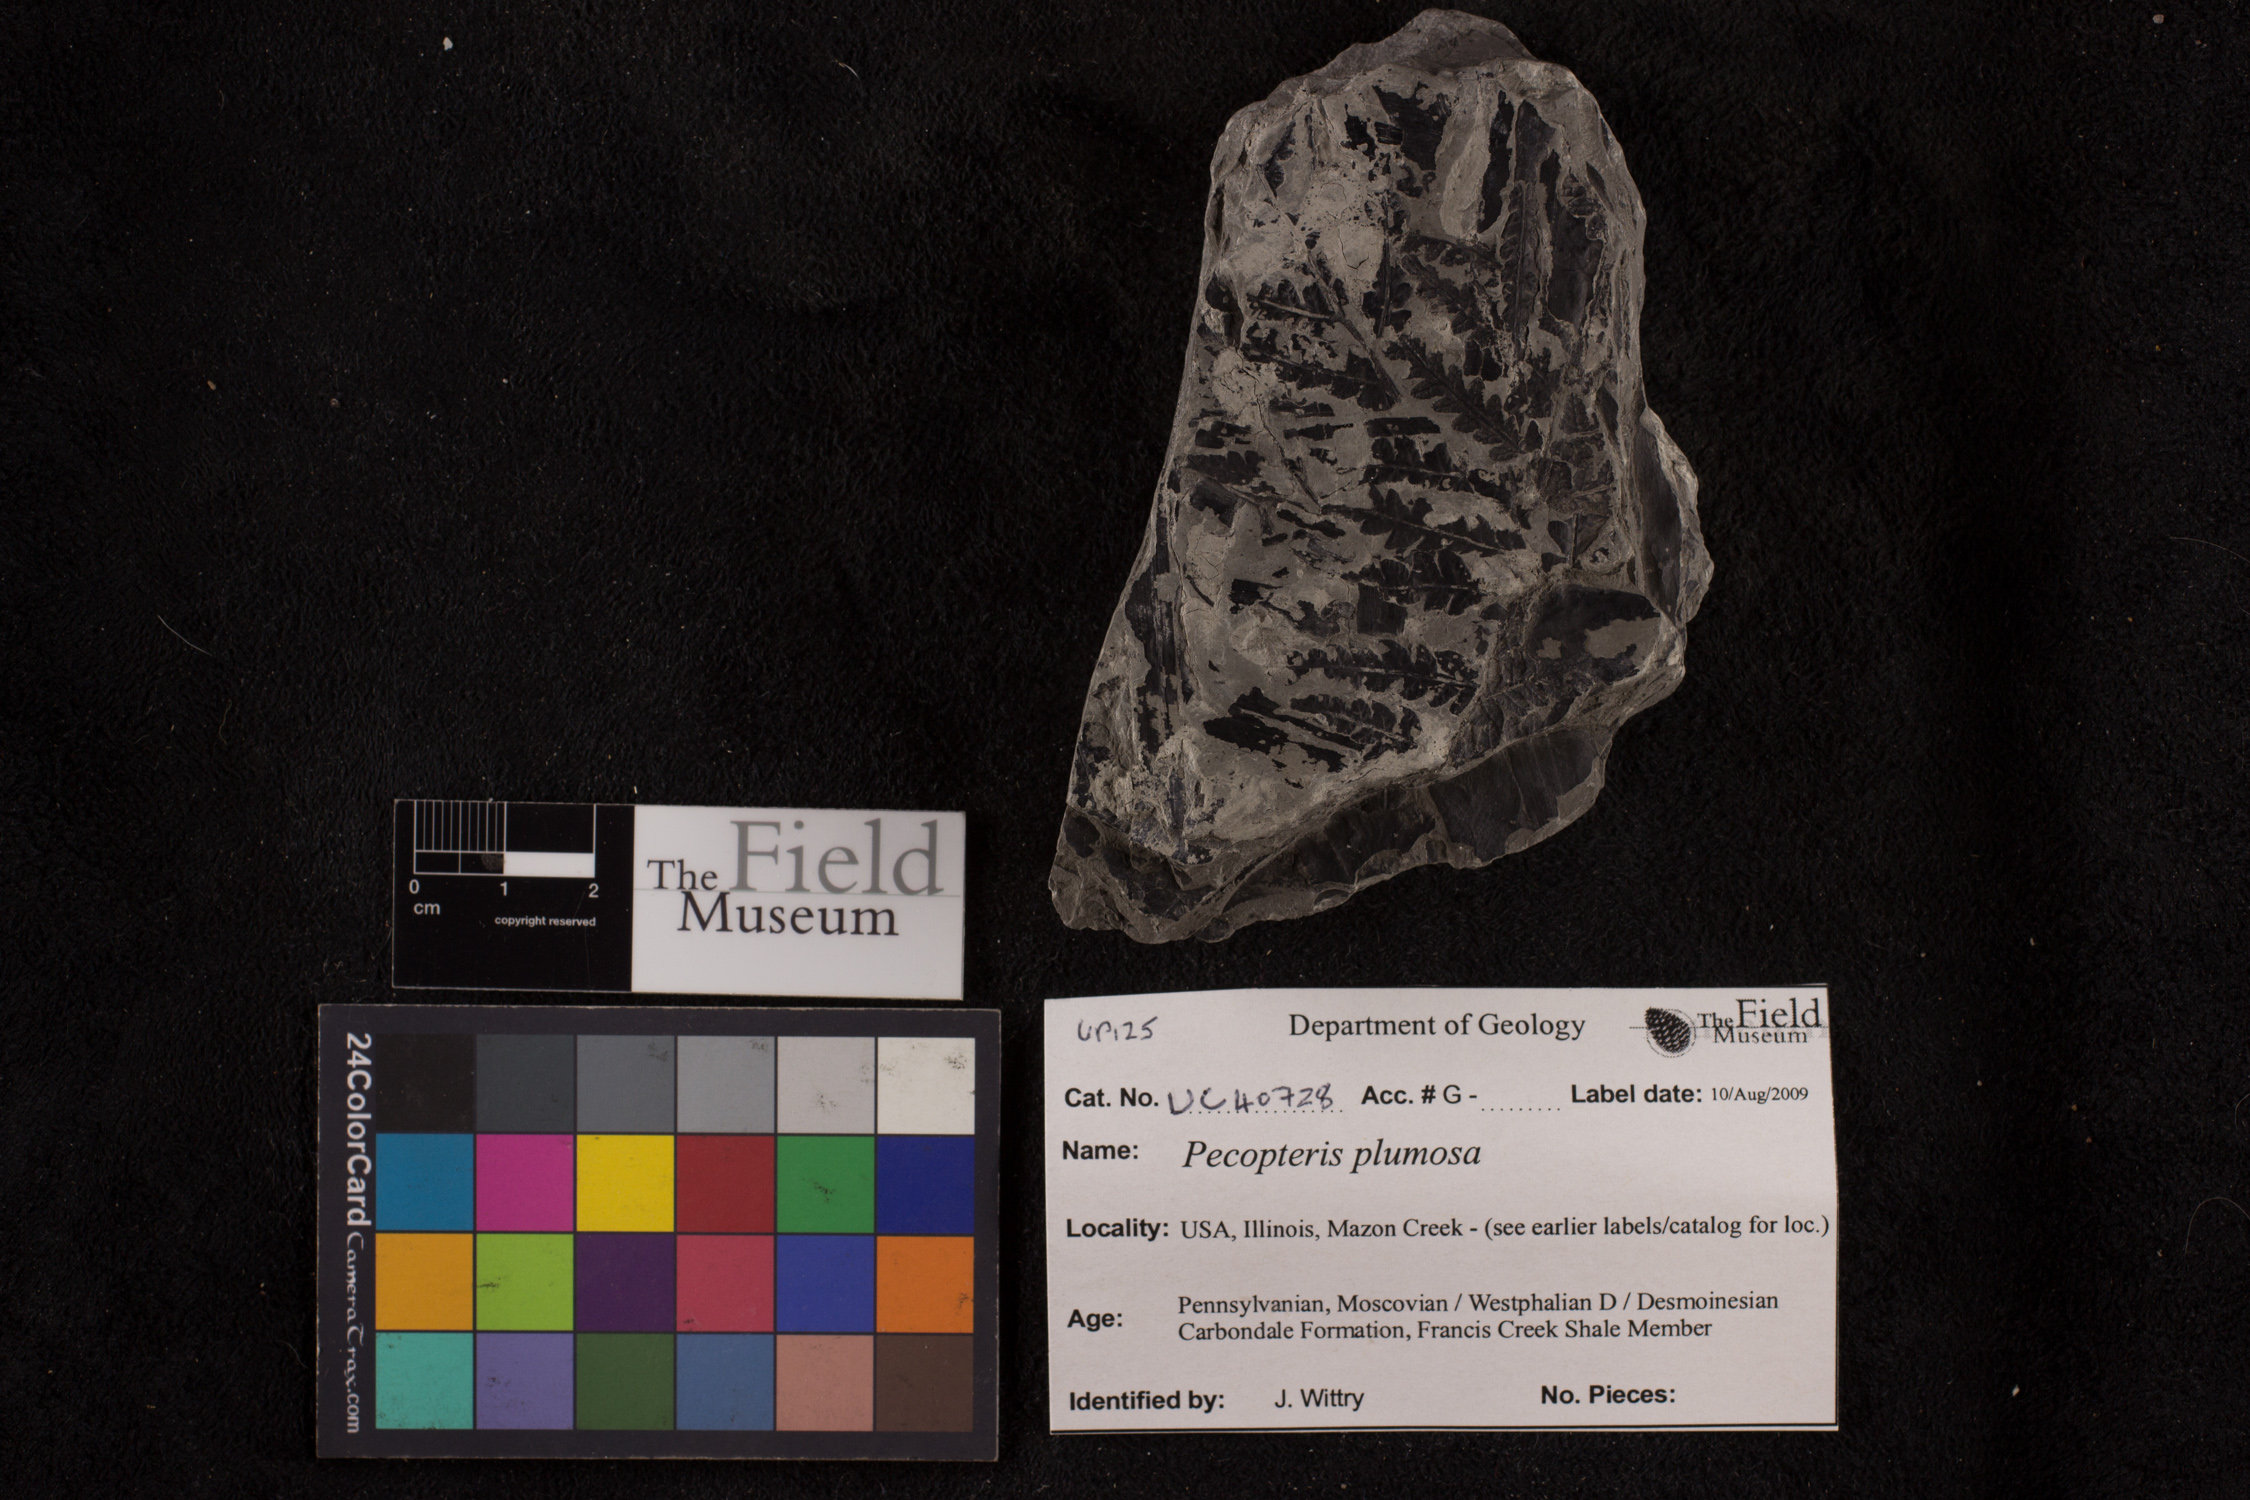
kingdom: Plantae
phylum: Tracheophyta
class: Polypodiopsida
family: Tedeleaceae
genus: Senftenbergia
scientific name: Senftenbergia
